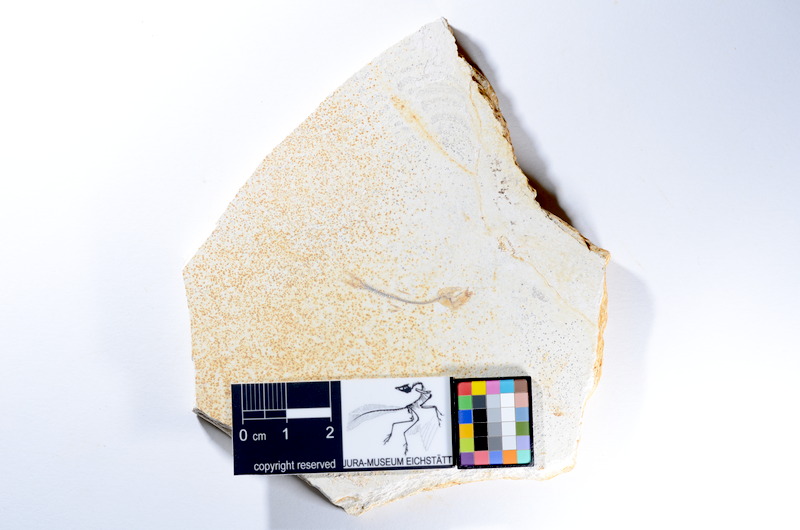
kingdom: Animalia
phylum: Chordata
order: Salmoniformes
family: Orthogonikleithridae
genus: Orthogonikleithrus
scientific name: Orthogonikleithrus hoelli
